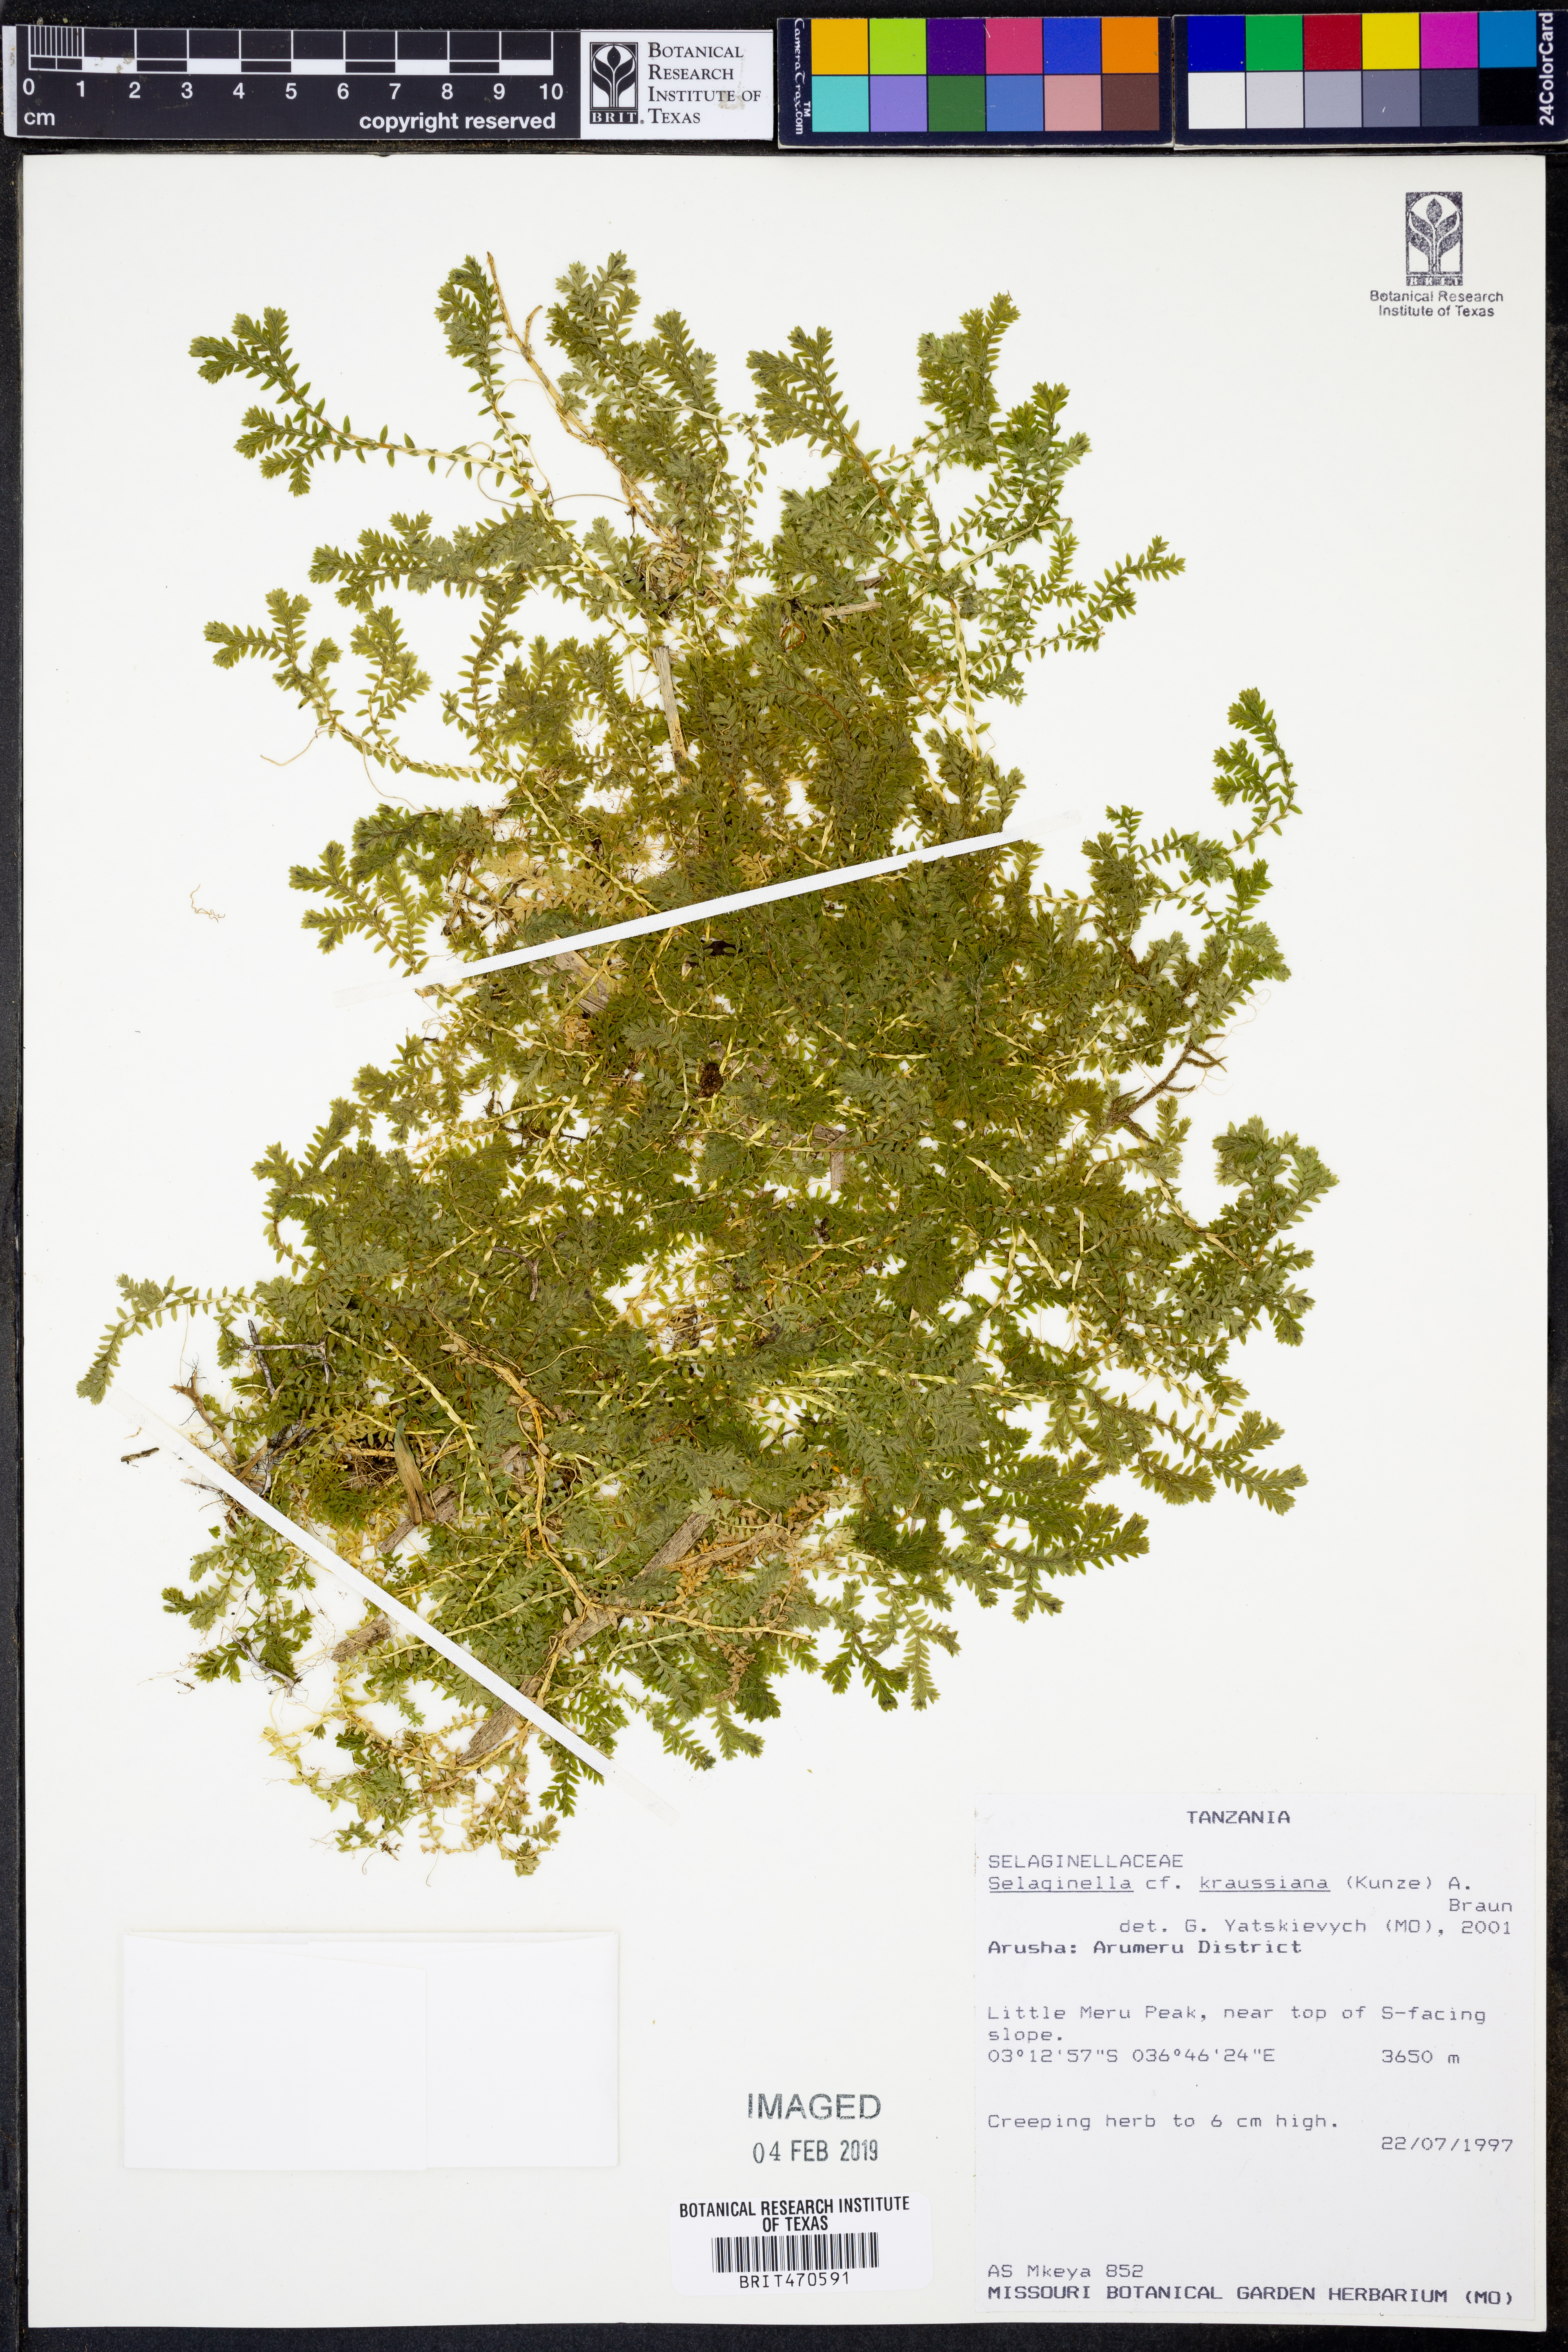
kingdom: Plantae
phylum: Tracheophyta
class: Lycopodiopsida
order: Selaginellales
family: Selaginellaceae
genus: Selaginella
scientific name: Selaginella kraussiana
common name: Krauss' spikemoss
